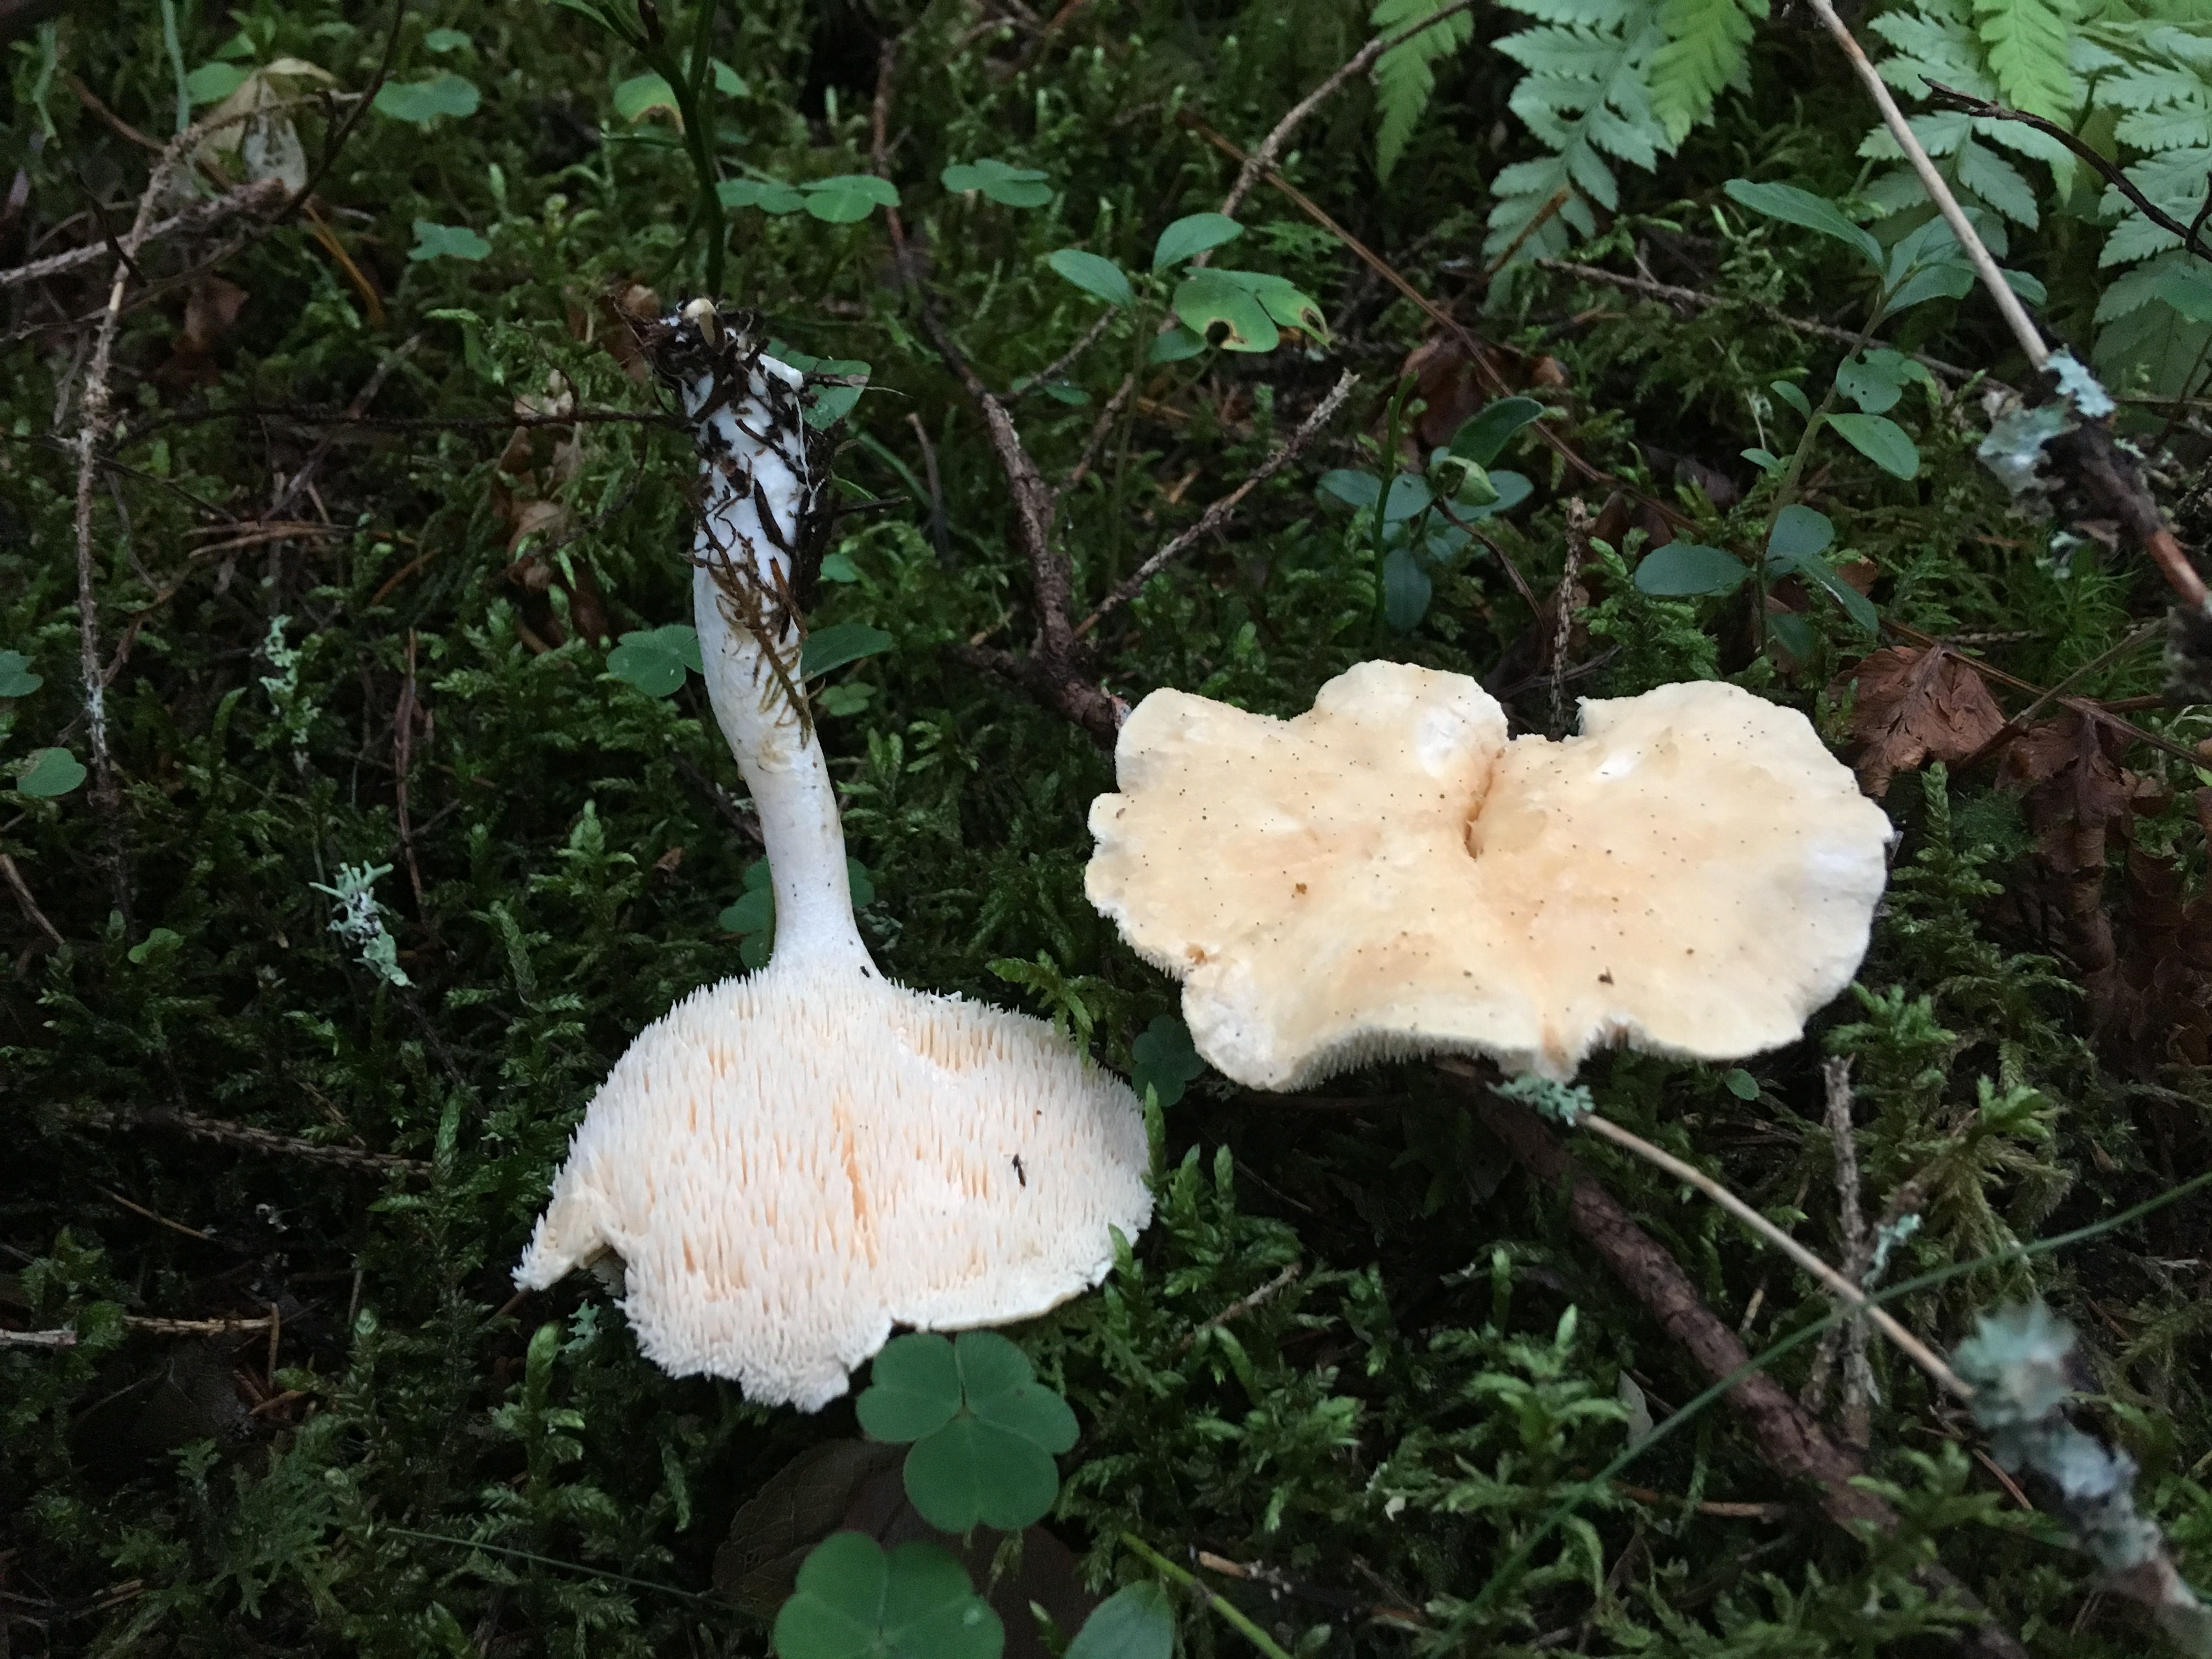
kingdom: Fungi
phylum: Basidiomycota
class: Agaricomycetes
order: Cantharellales
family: Hydnaceae
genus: Hydnum
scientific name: Hydnum repandum
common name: Wood hedgehog
